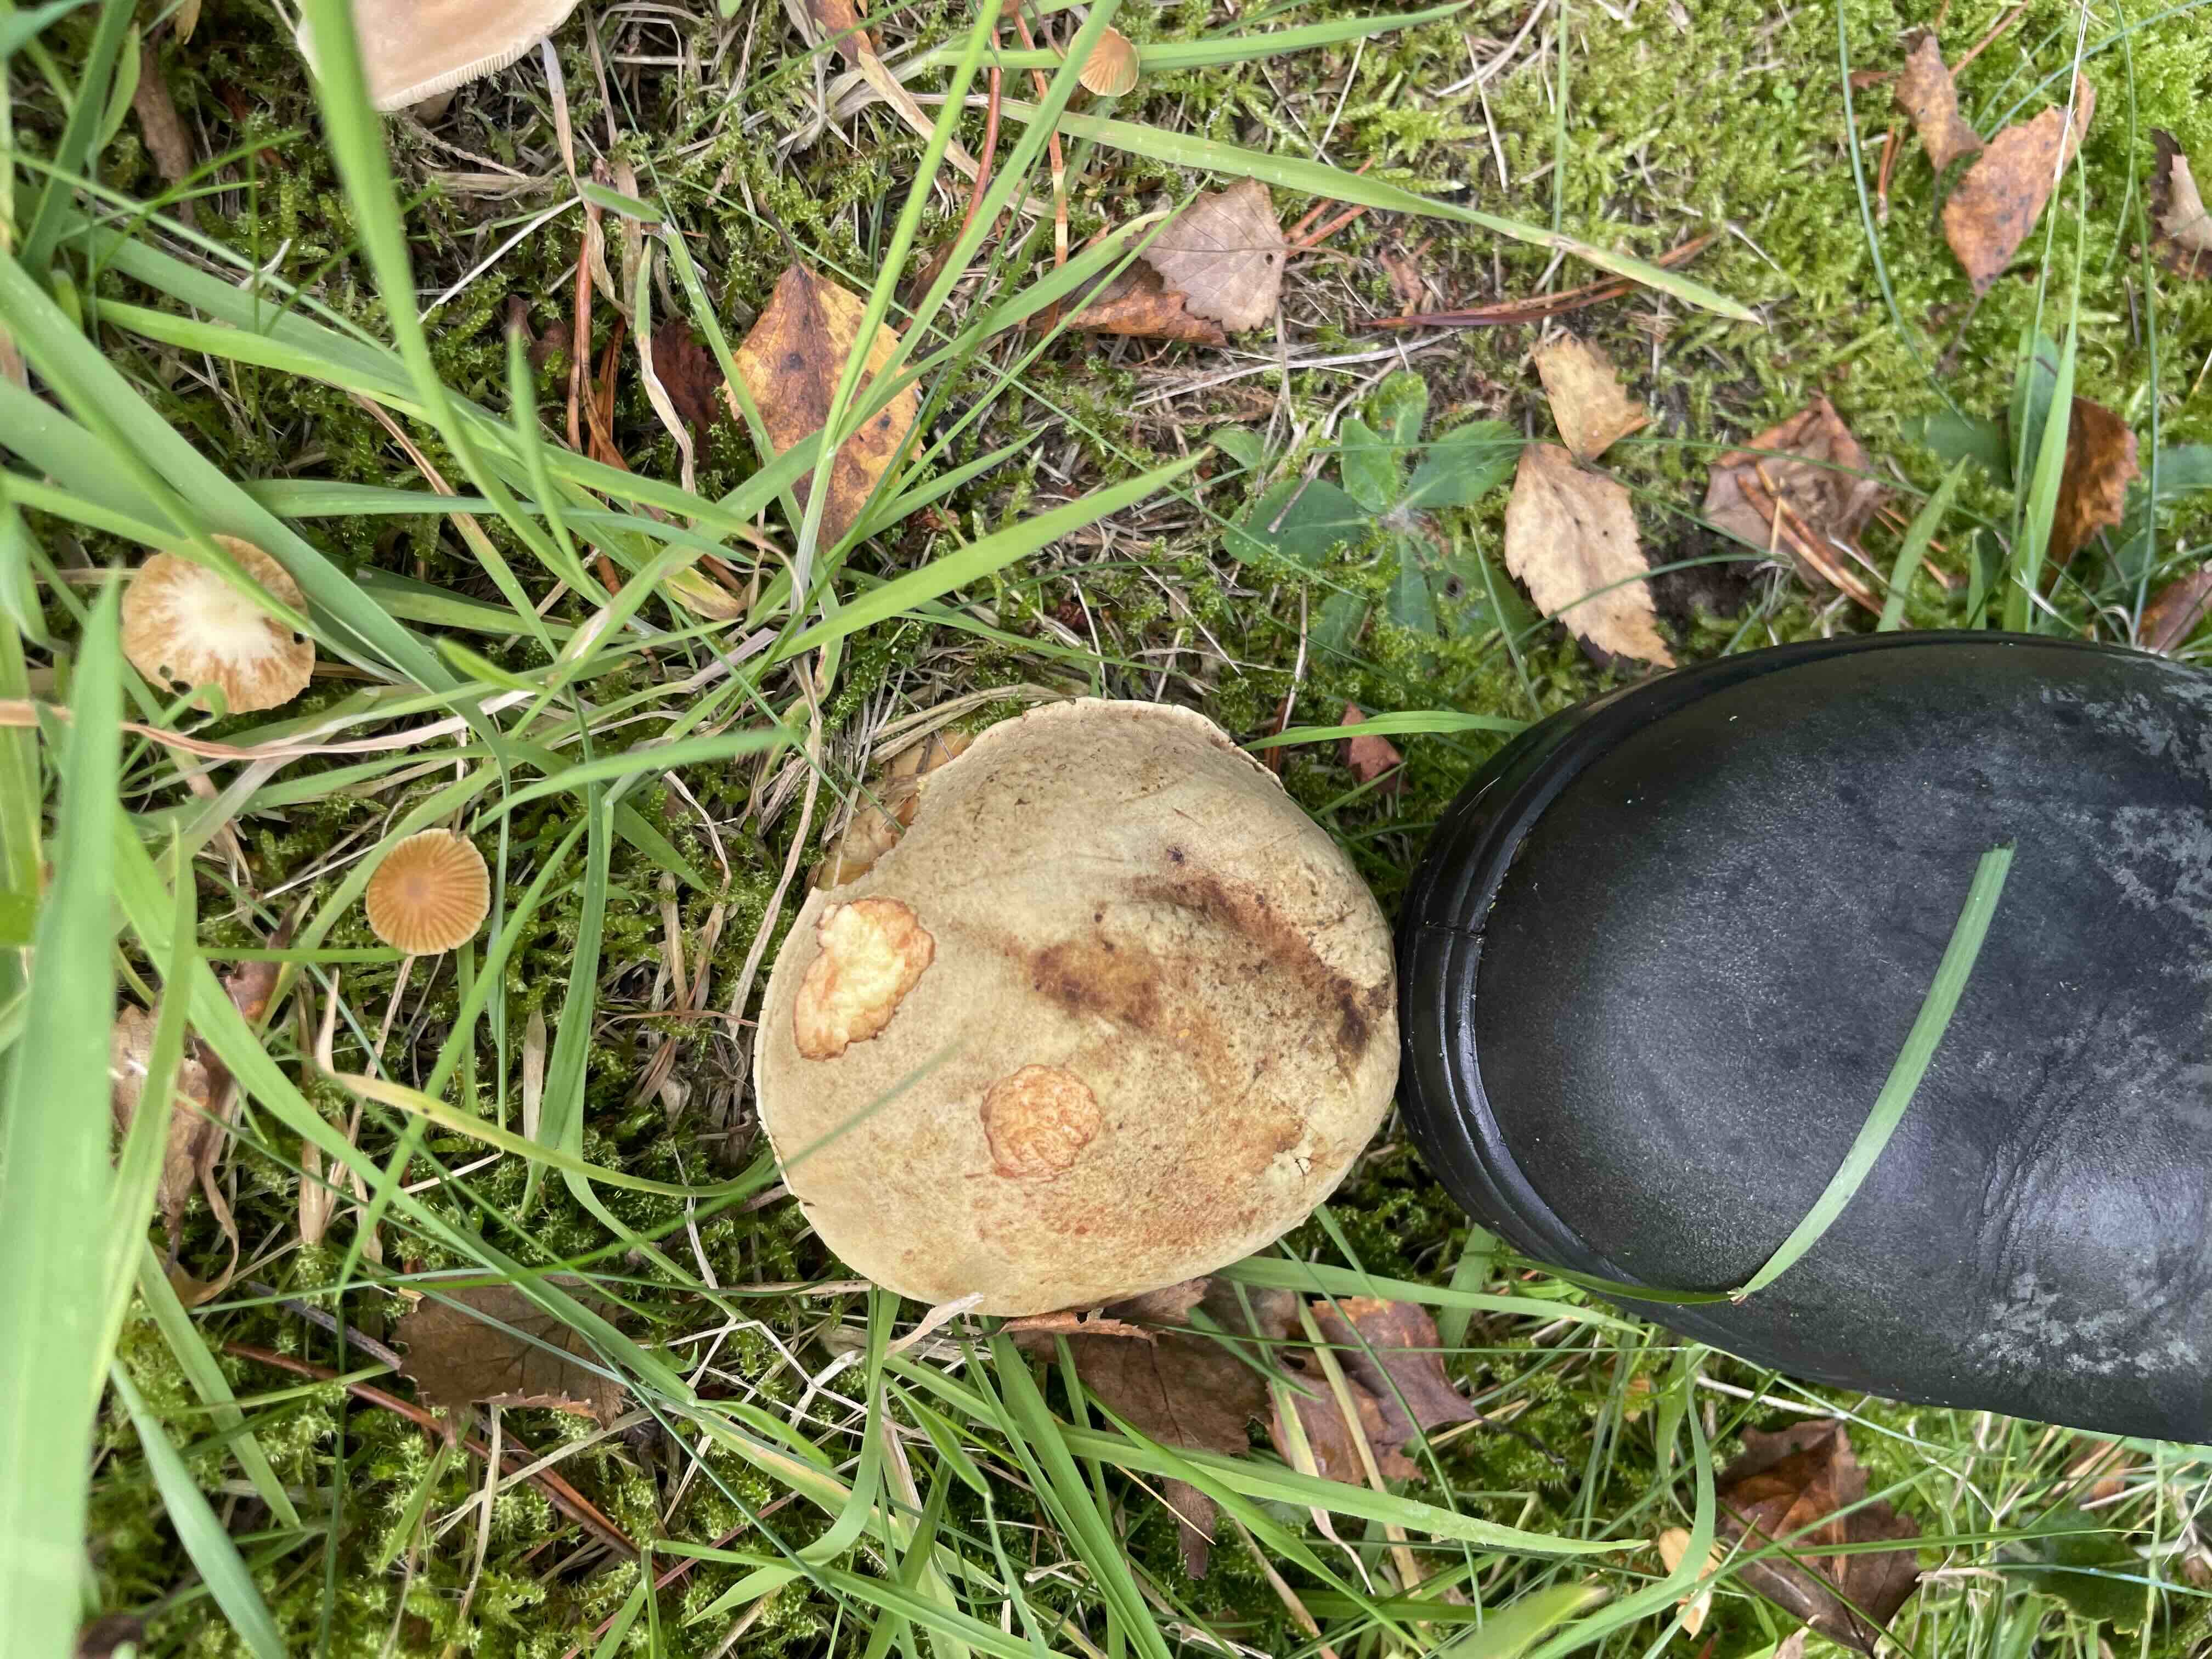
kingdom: Fungi
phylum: Basidiomycota
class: Agaricomycetes
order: Boletales
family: Boletaceae
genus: Xerocomus
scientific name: Xerocomus
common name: filtrørhat
